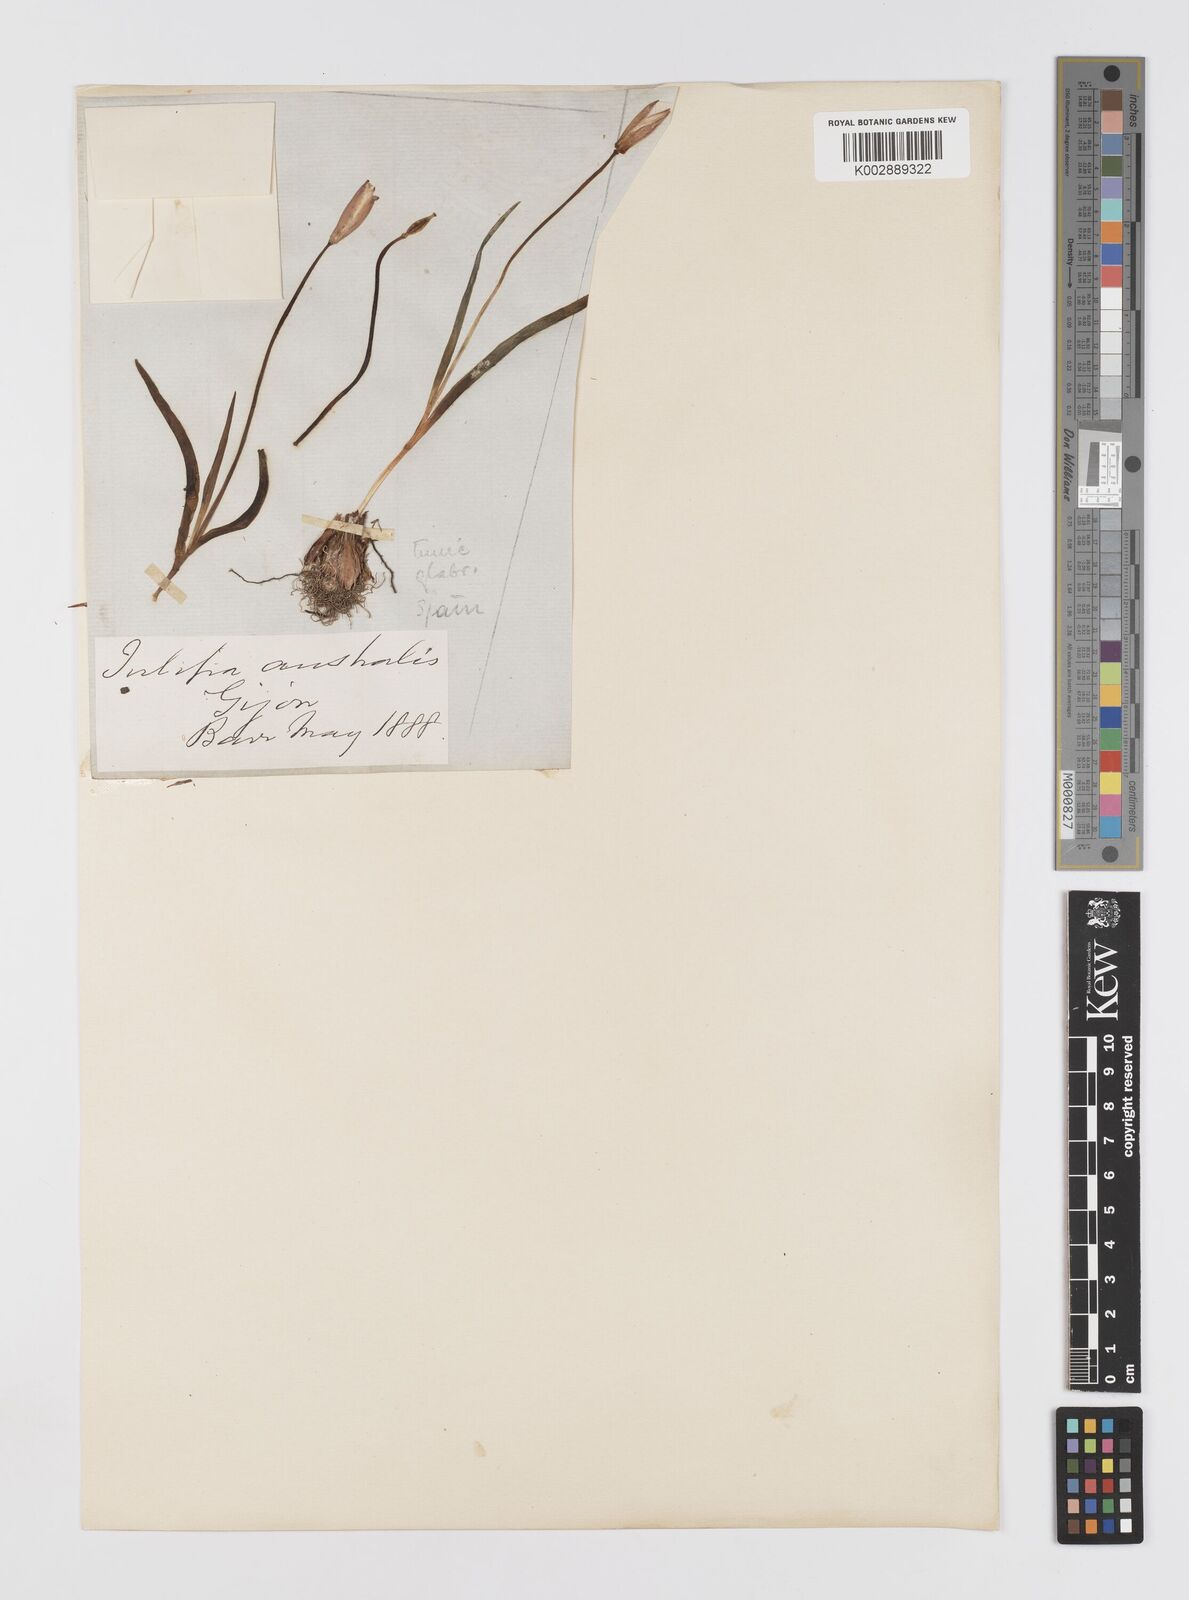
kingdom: Plantae
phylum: Tracheophyta
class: Liliopsida
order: Liliales
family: Liliaceae
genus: Tulipa
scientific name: Tulipa sylvestris
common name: Wild tulip
